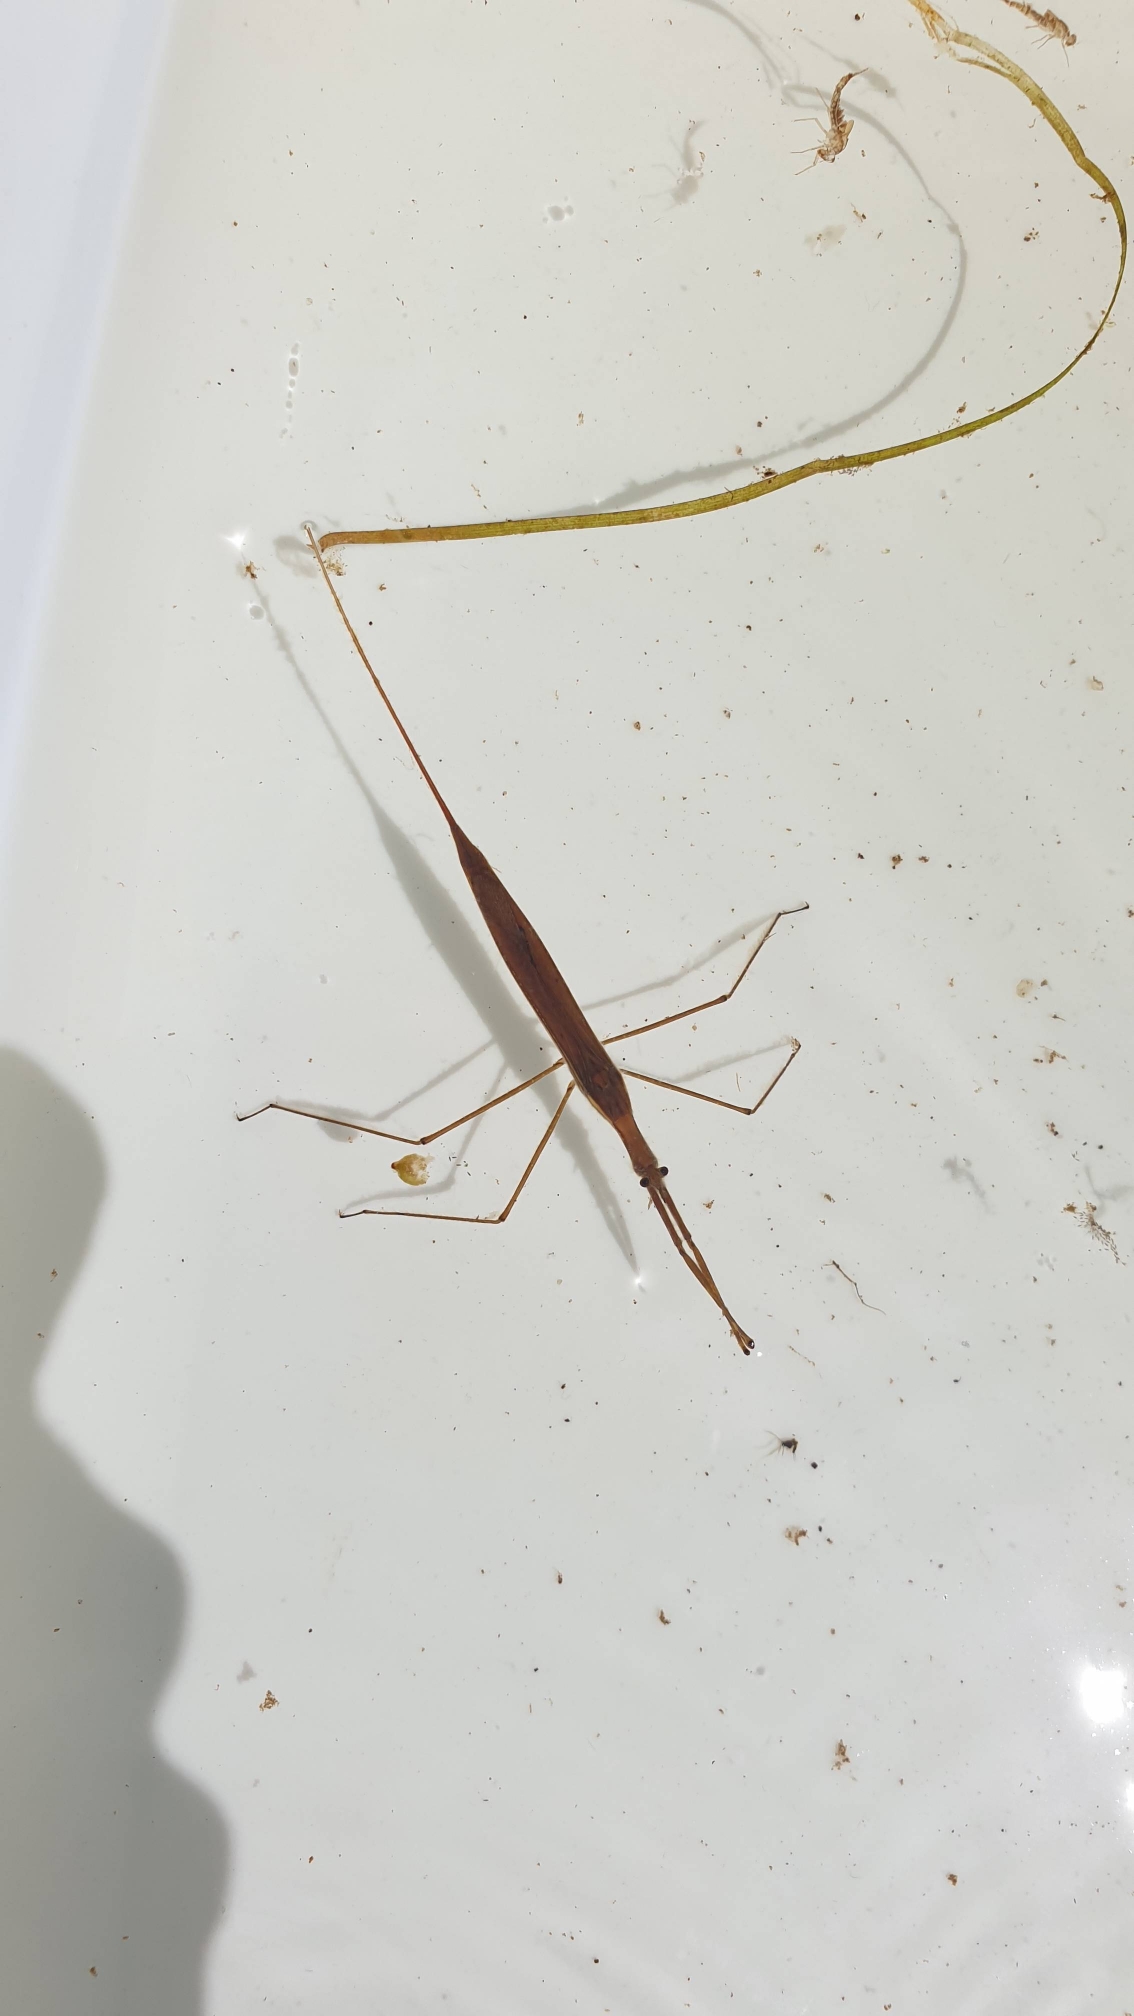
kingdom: Animalia
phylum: Arthropoda
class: Insecta
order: Hemiptera
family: Nepidae
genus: Ranatra
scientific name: Ranatra linearis
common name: Stavtæge
